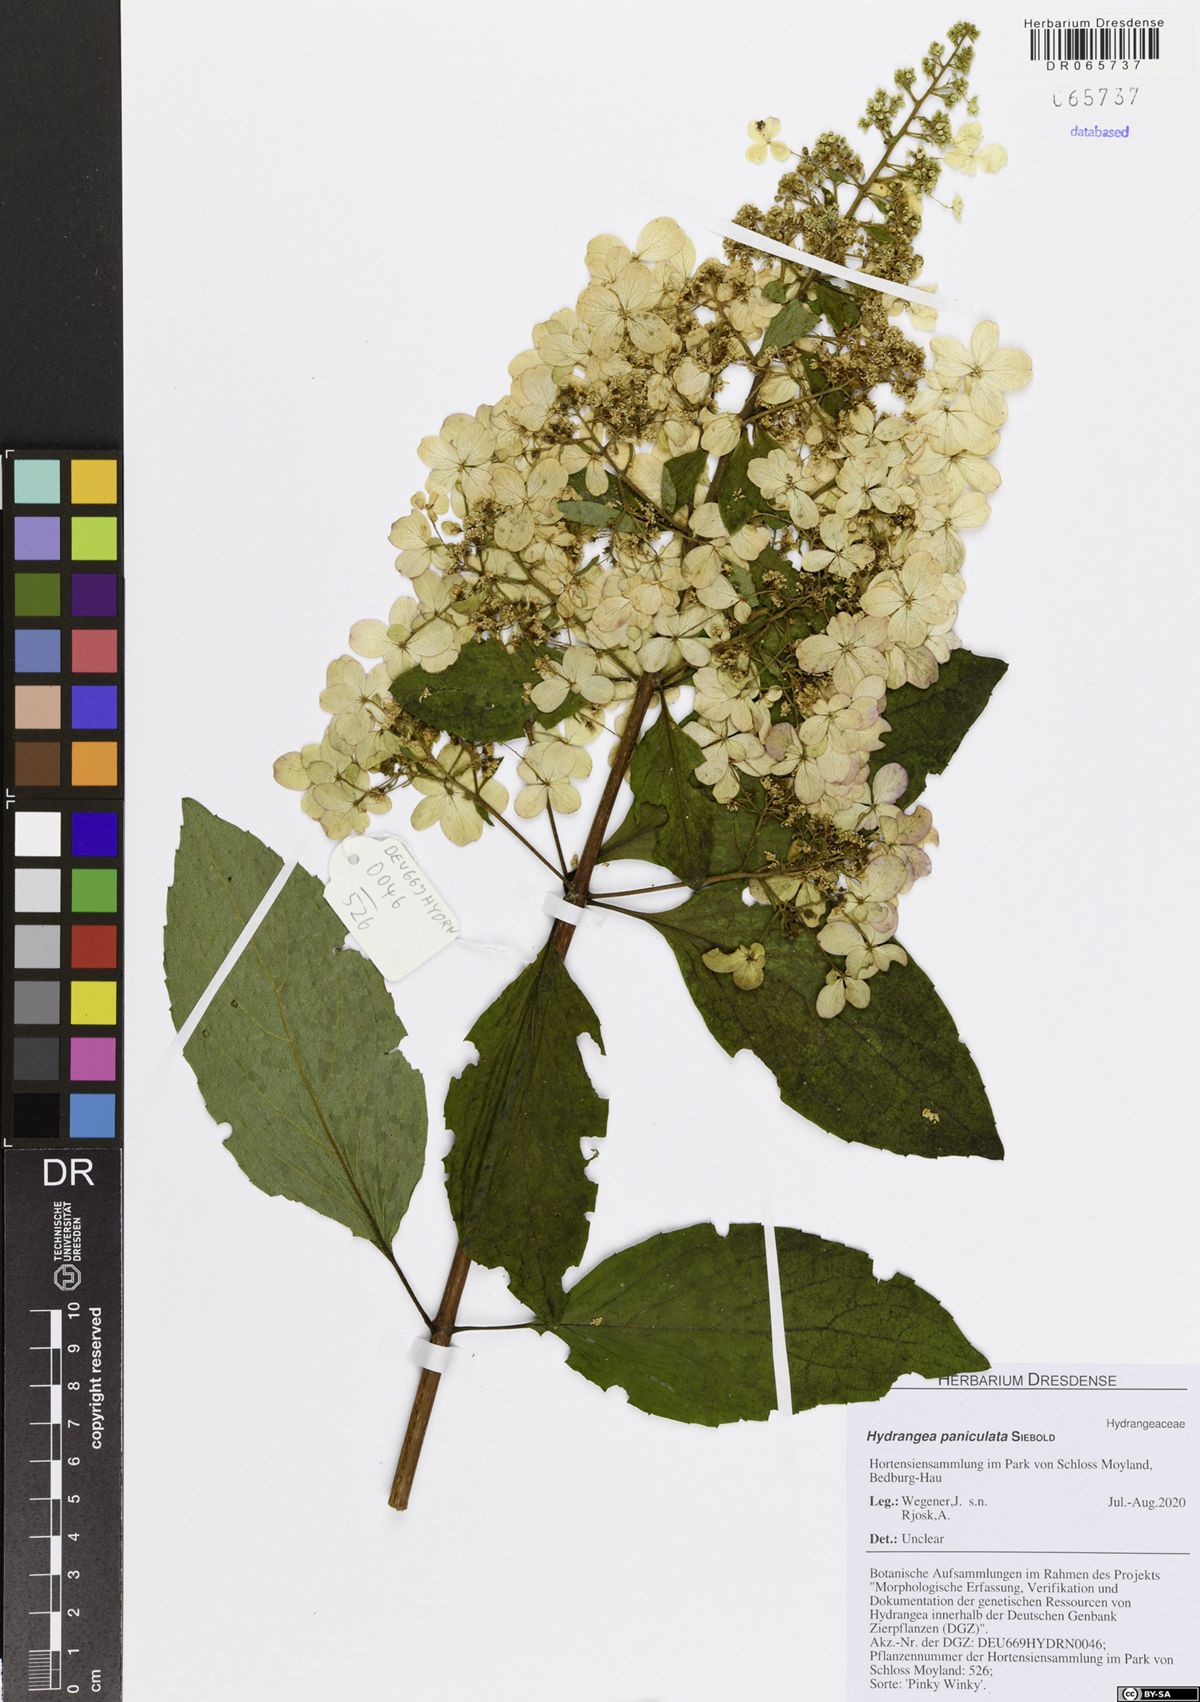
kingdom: Plantae
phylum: Tracheophyta
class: Magnoliopsida
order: Cornales
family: Hydrangeaceae
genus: Hydrangea
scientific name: Hydrangea paniculata
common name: Panicled hydrangea
